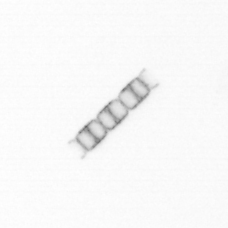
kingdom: Chromista
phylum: Ochrophyta
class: Bacillariophyceae
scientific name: Bacillariophyceae
